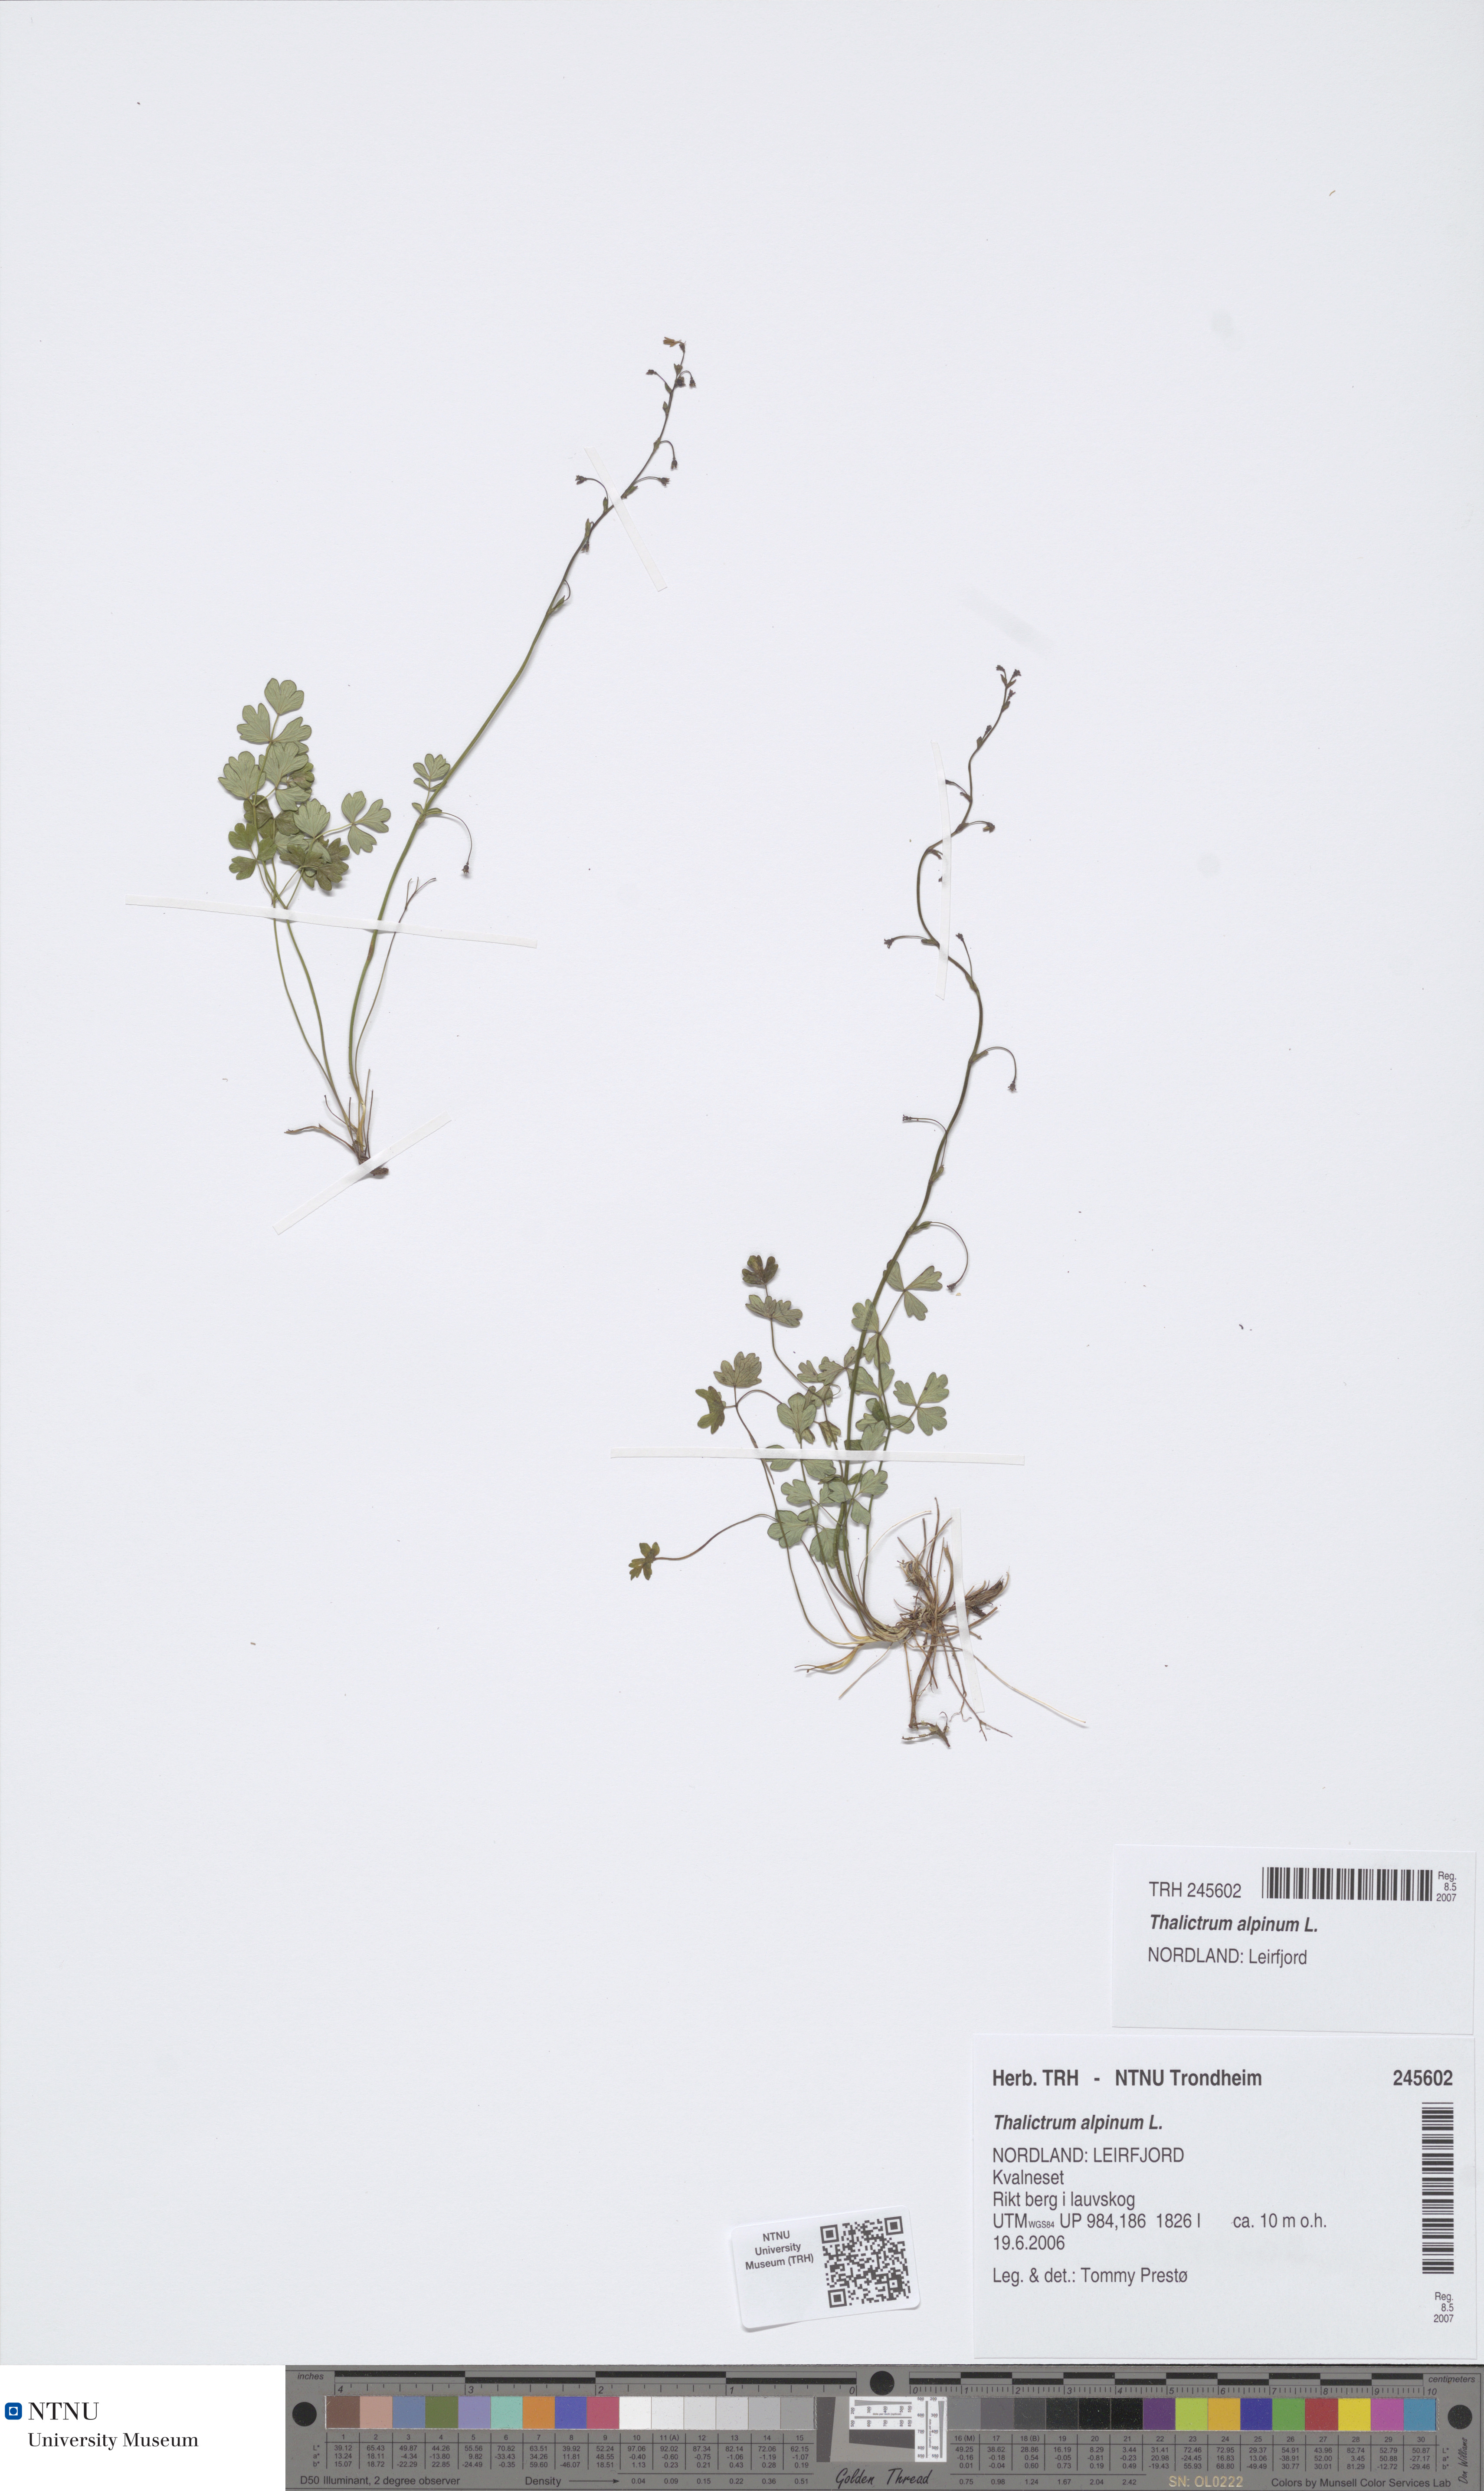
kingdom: Plantae
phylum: Tracheophyta
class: Magnoliopsida
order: Ranunculales
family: Ranunculaceae
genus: Thalictrum
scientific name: Thalictrum alpinum
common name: Alpine meadow-rue
